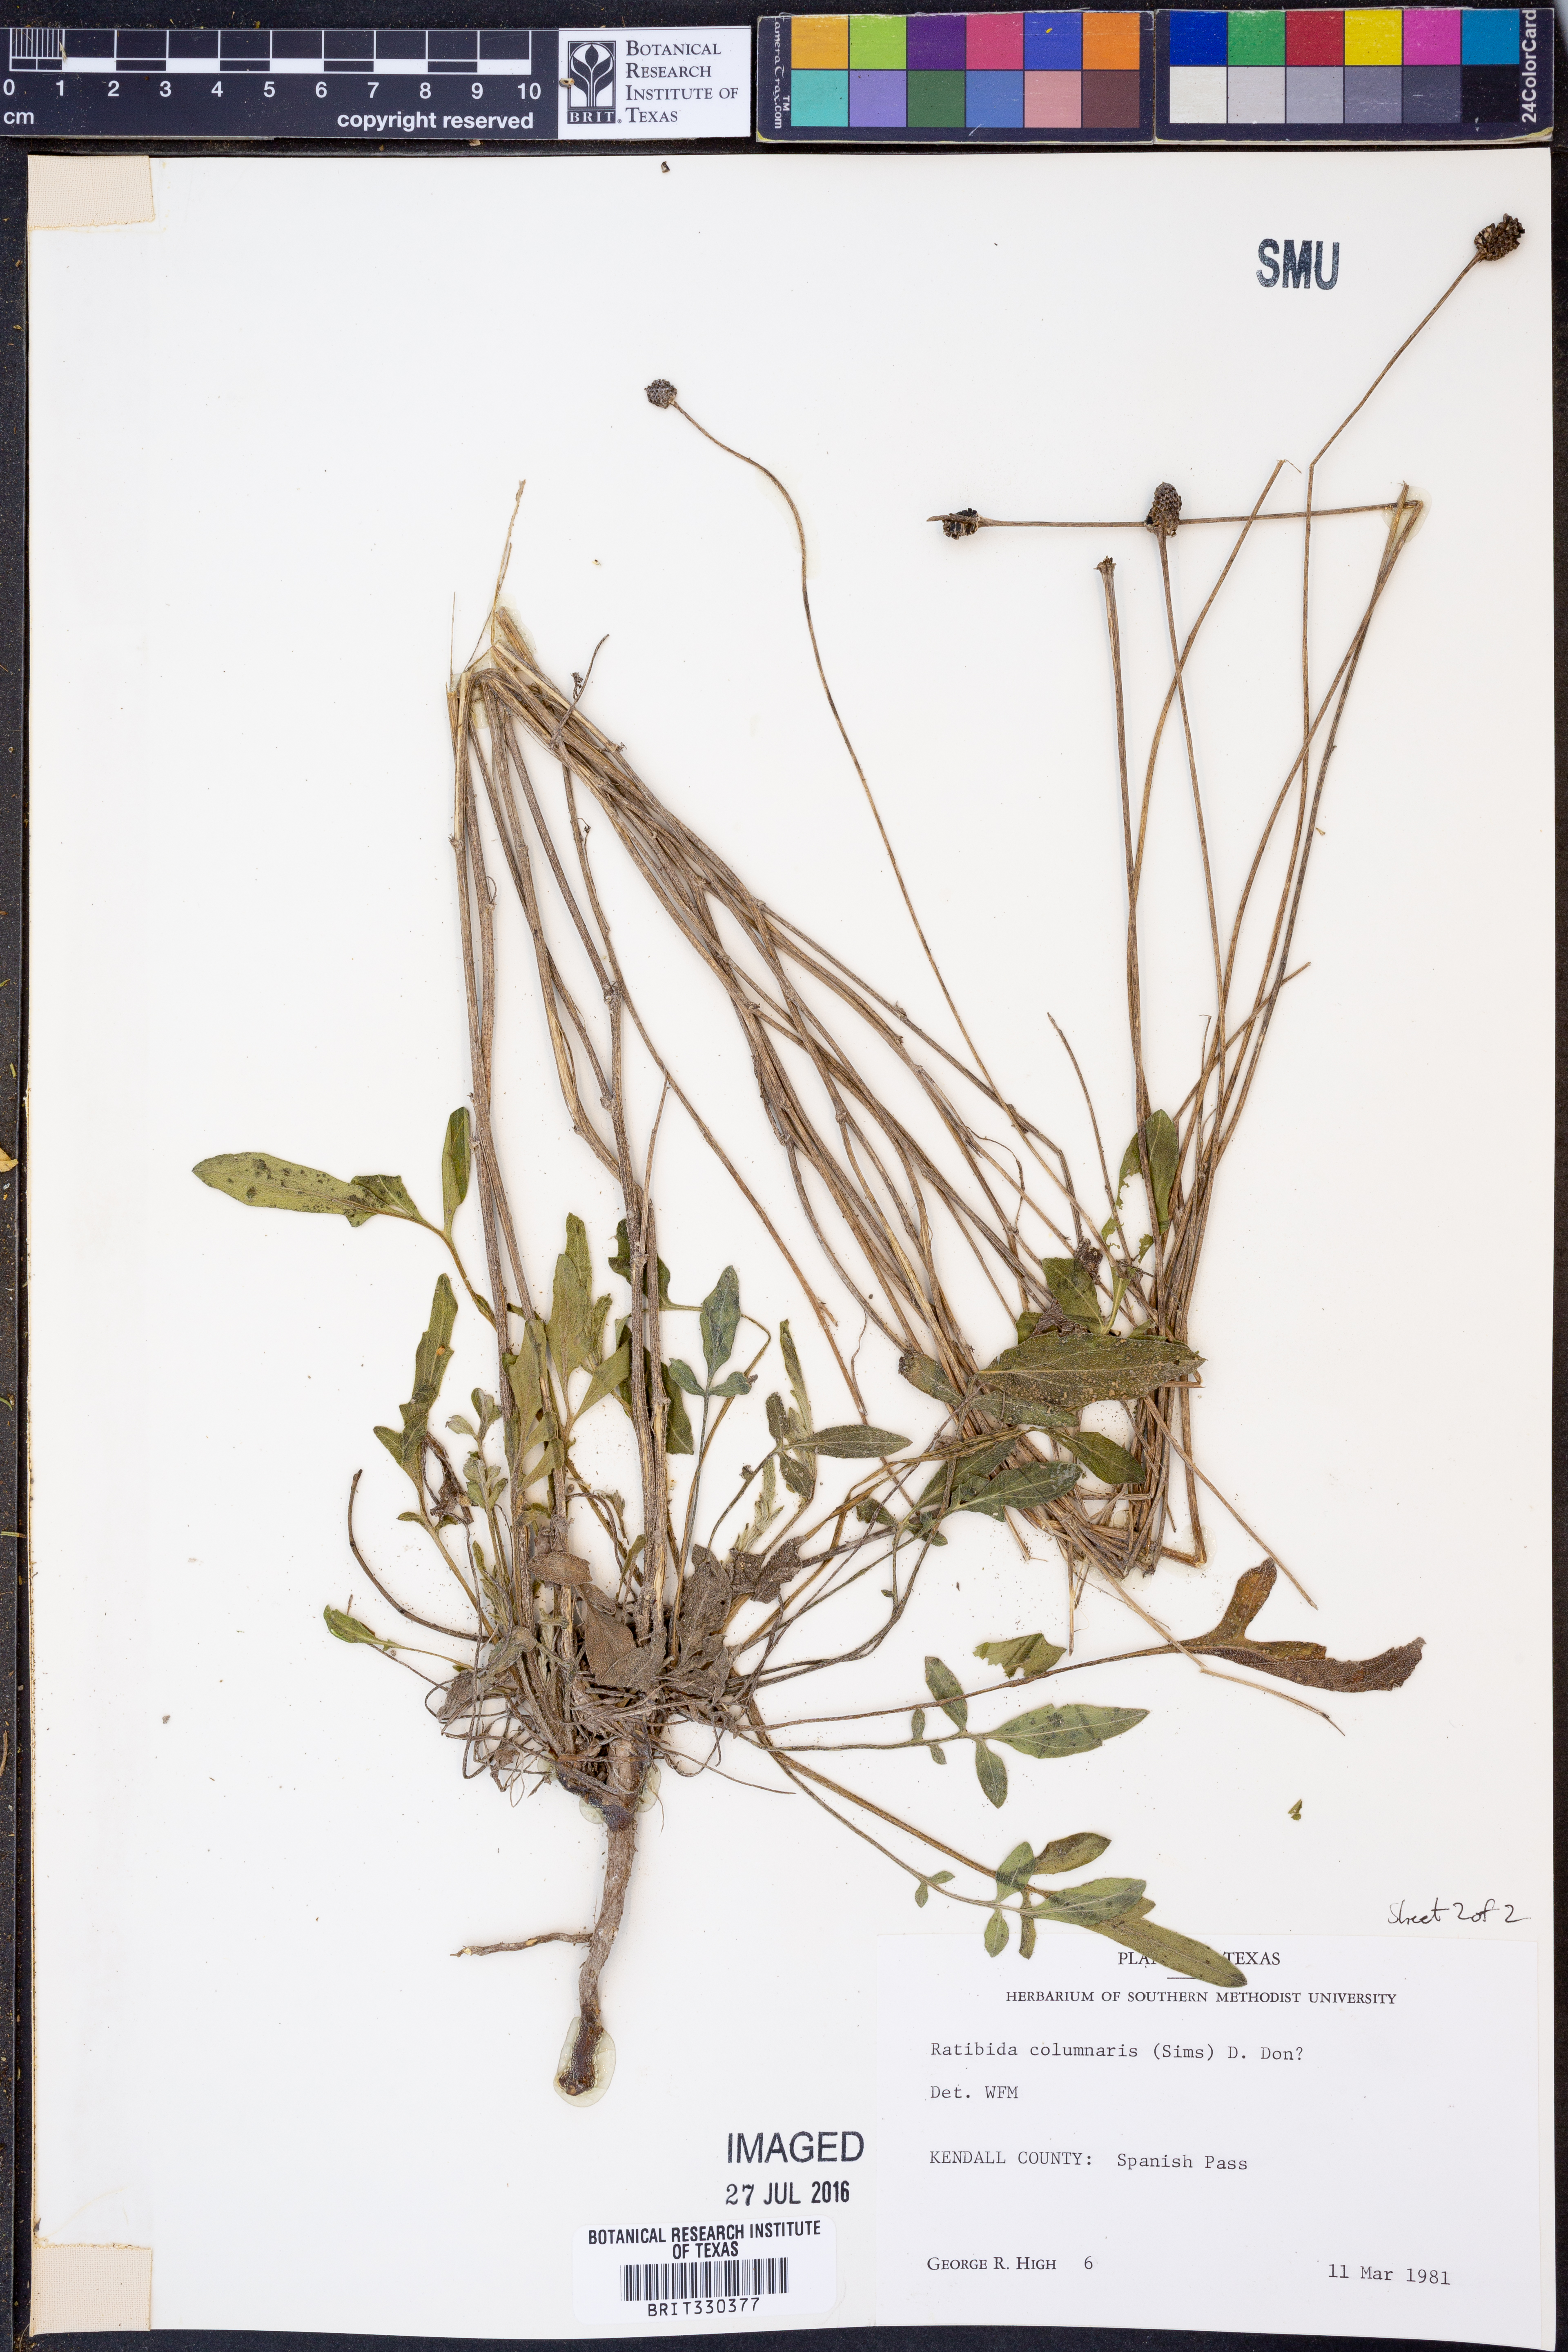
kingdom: Plantae
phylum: Tracheophyta
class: Magnoliopsida
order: Asterales
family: Asteraceae
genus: Ratibida
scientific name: Ratibida columnifera
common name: Prairie coneflower
